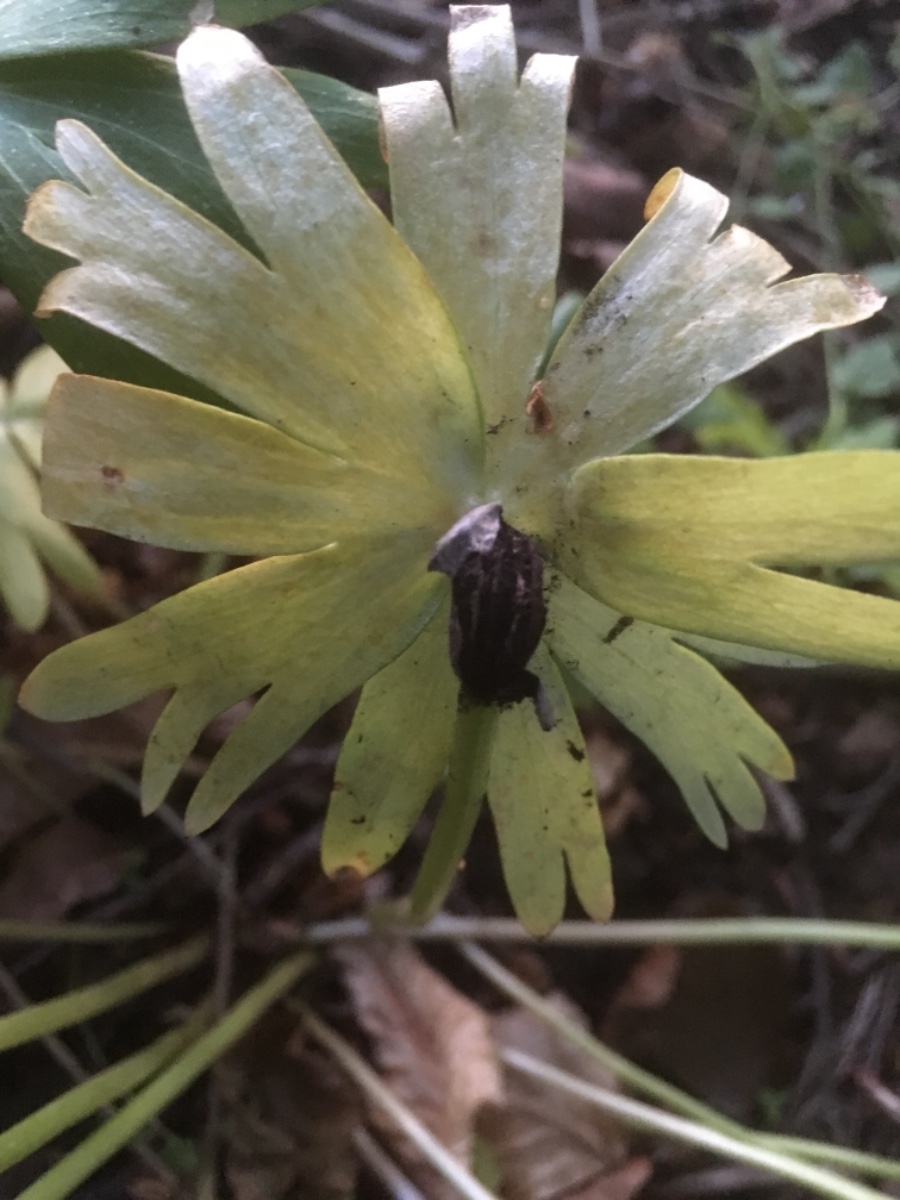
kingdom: Fungi
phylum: Basidiomycota
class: Ustilaginomycetes
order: Urocystidales
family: Urocystidaceae
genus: Urocystis
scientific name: Urocystis eranthidis
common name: erantis-brand
